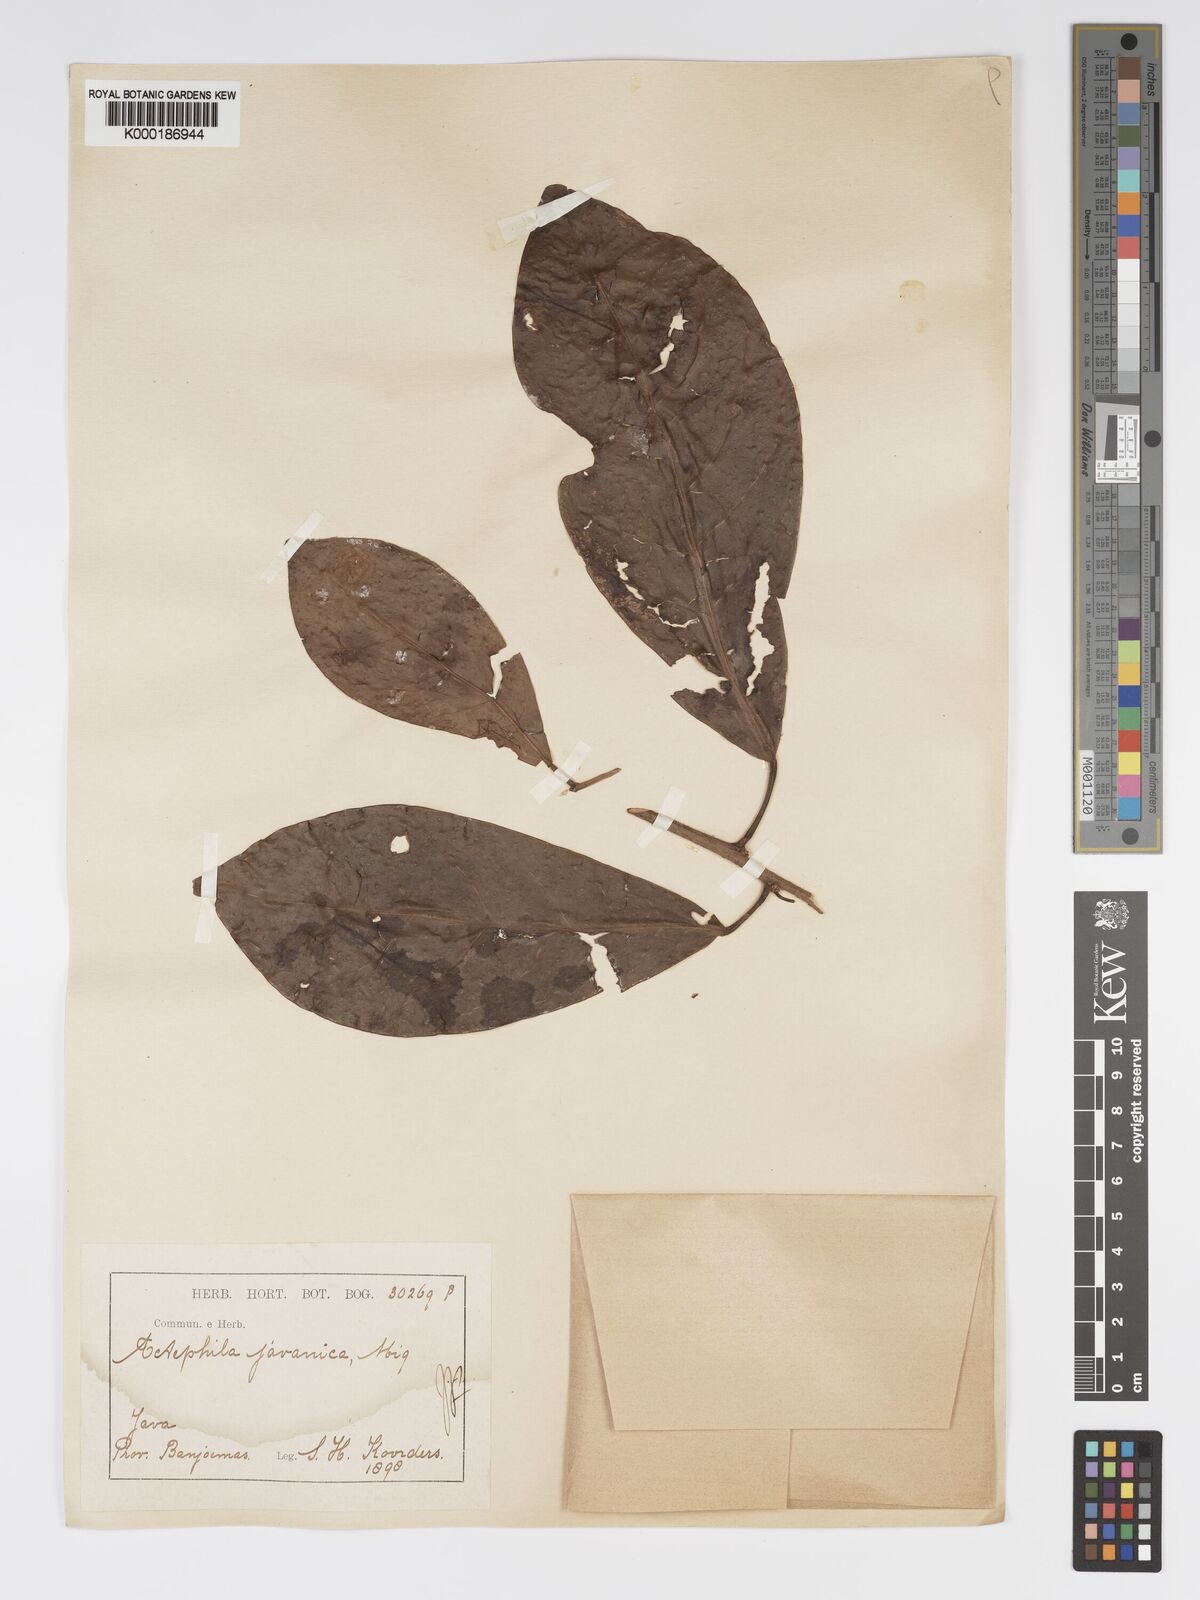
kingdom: Plantae
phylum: Tracheophyta
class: Magnoliopsida
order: Malpighiales
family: Phyllanthaceae
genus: Actephila
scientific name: Actephila
